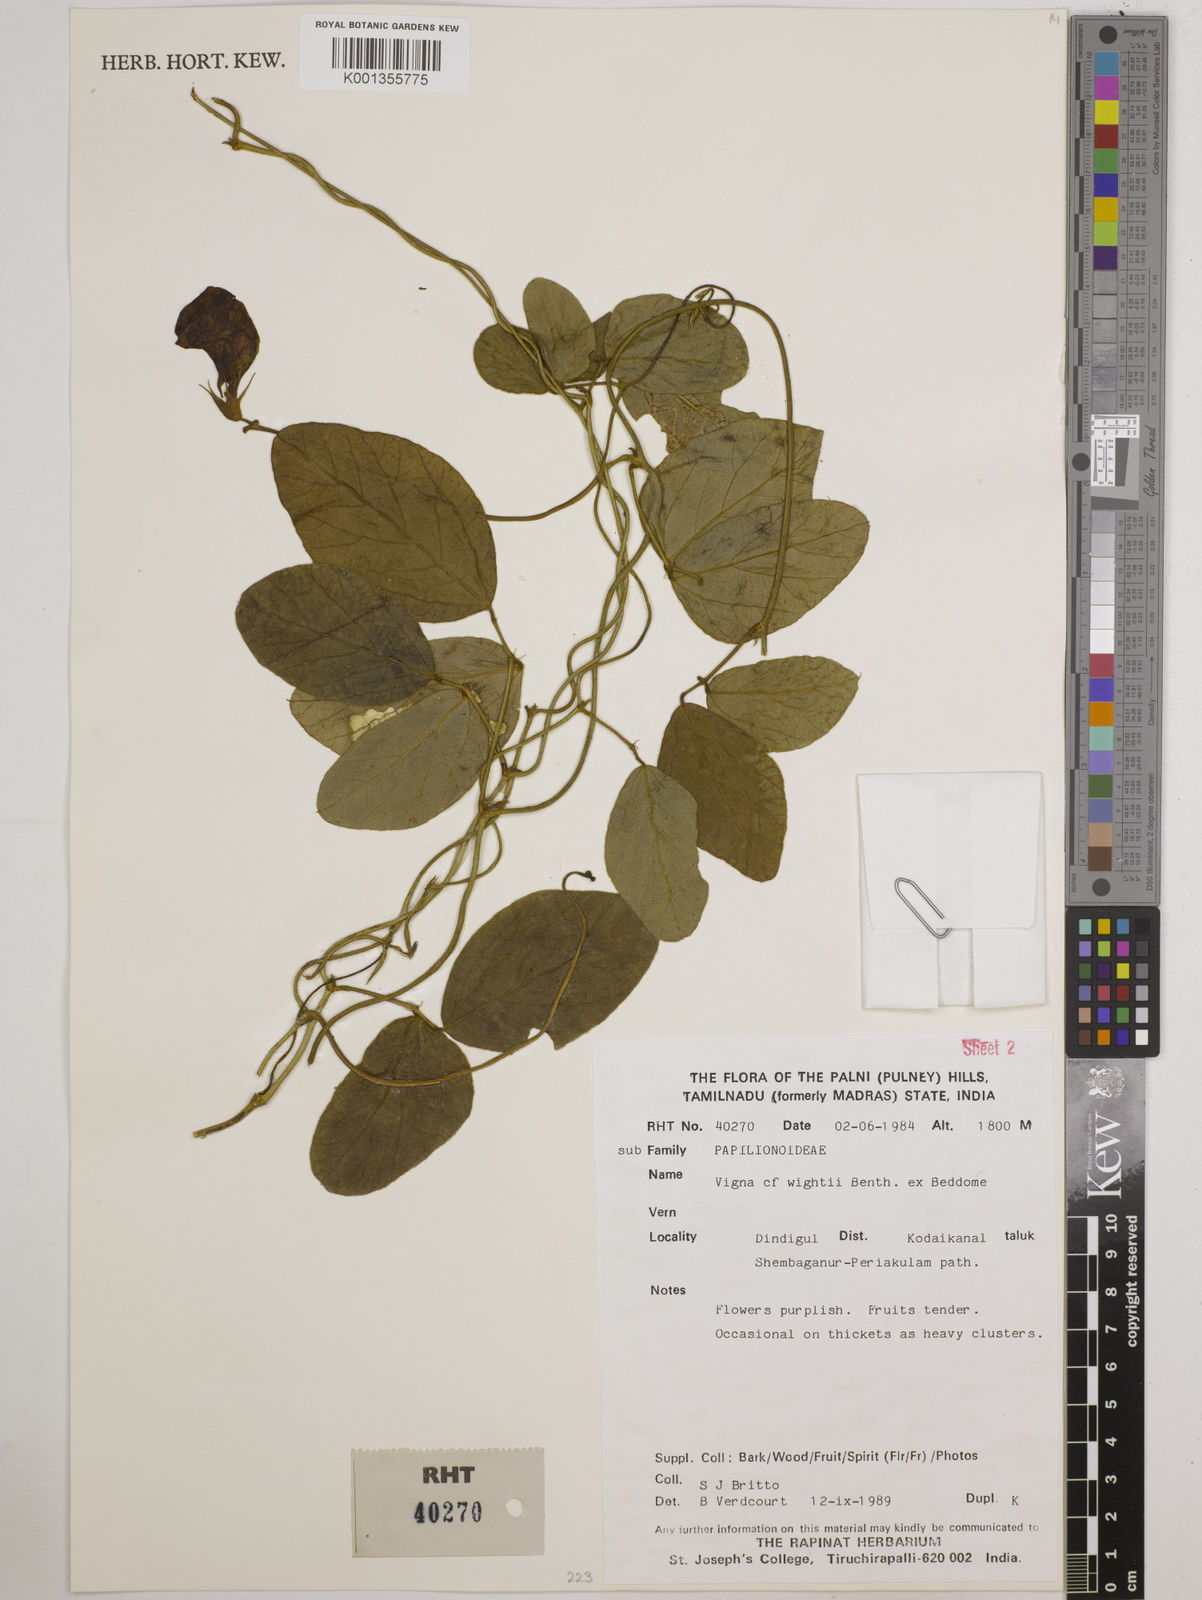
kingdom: Plantae
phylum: Tracheophyta
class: Magnoliopsida
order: Fabales
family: Fabaceae
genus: Vigna
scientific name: Vigna vexillata
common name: Zombi pea
